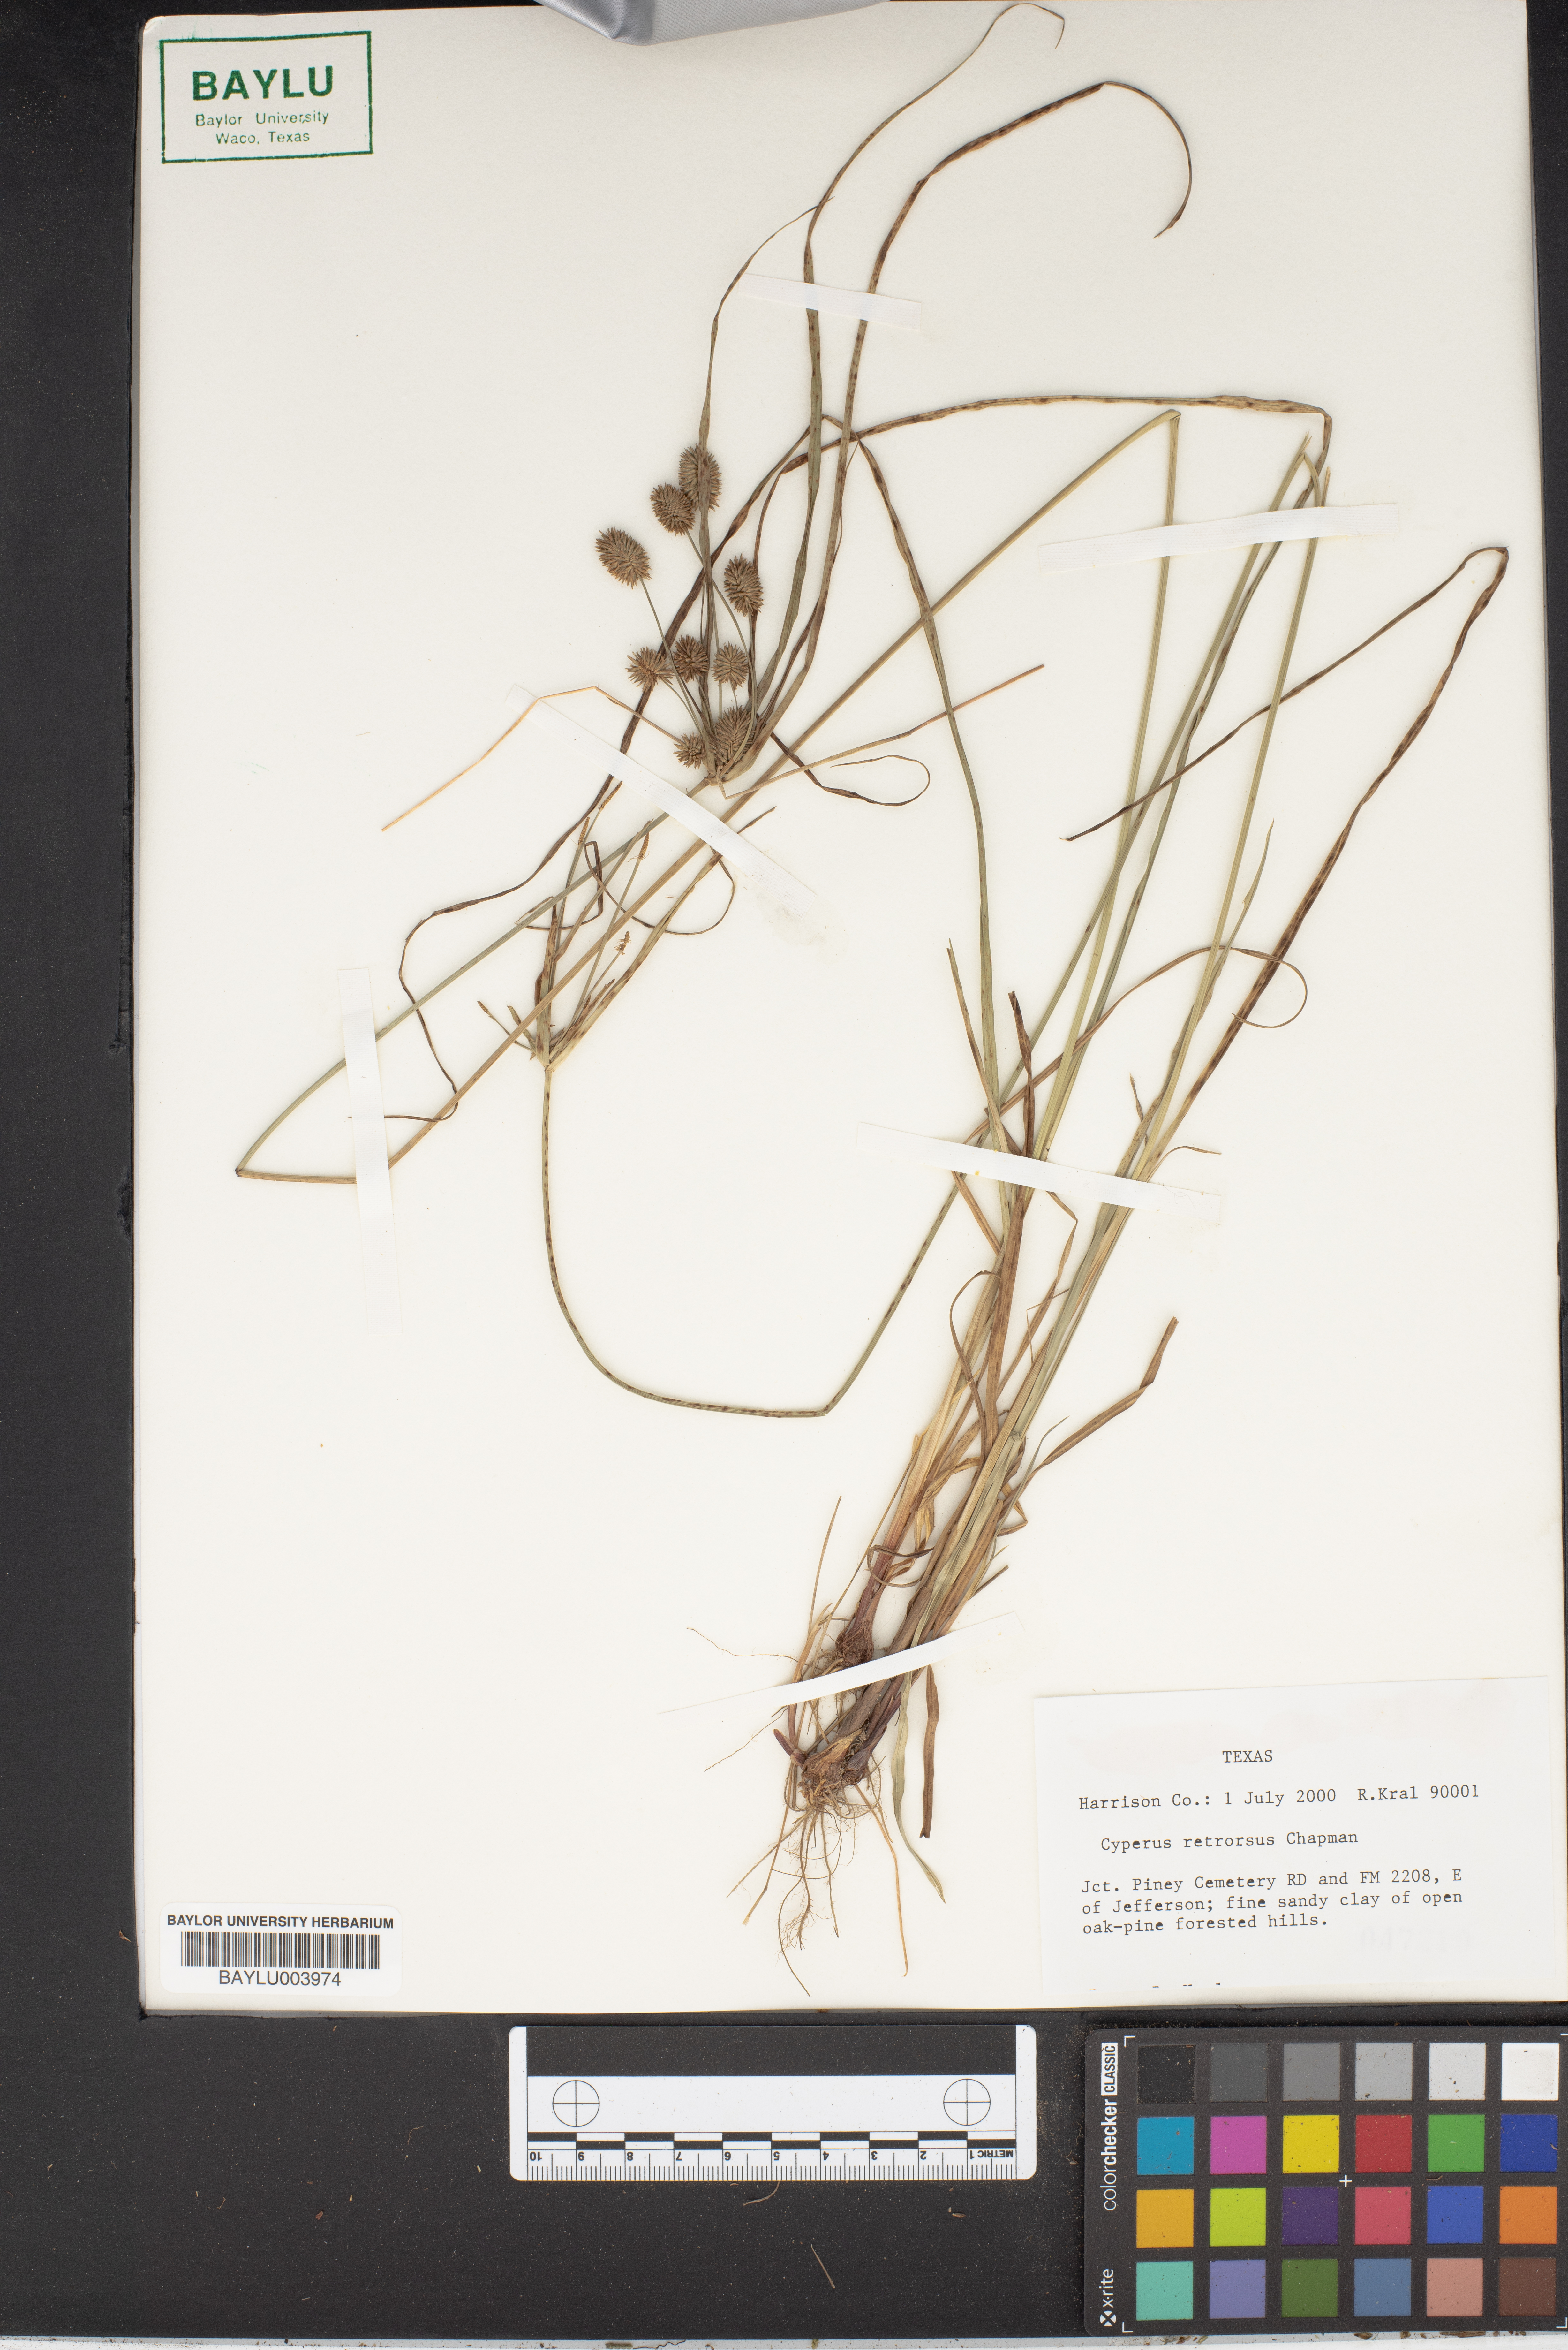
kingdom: Plantae
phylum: Tracheophyta
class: Liliopsida
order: Poales
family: Cyperaceae
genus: Cyperus
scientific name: Cyperus retrorsus
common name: Pinebarren flat sedge
